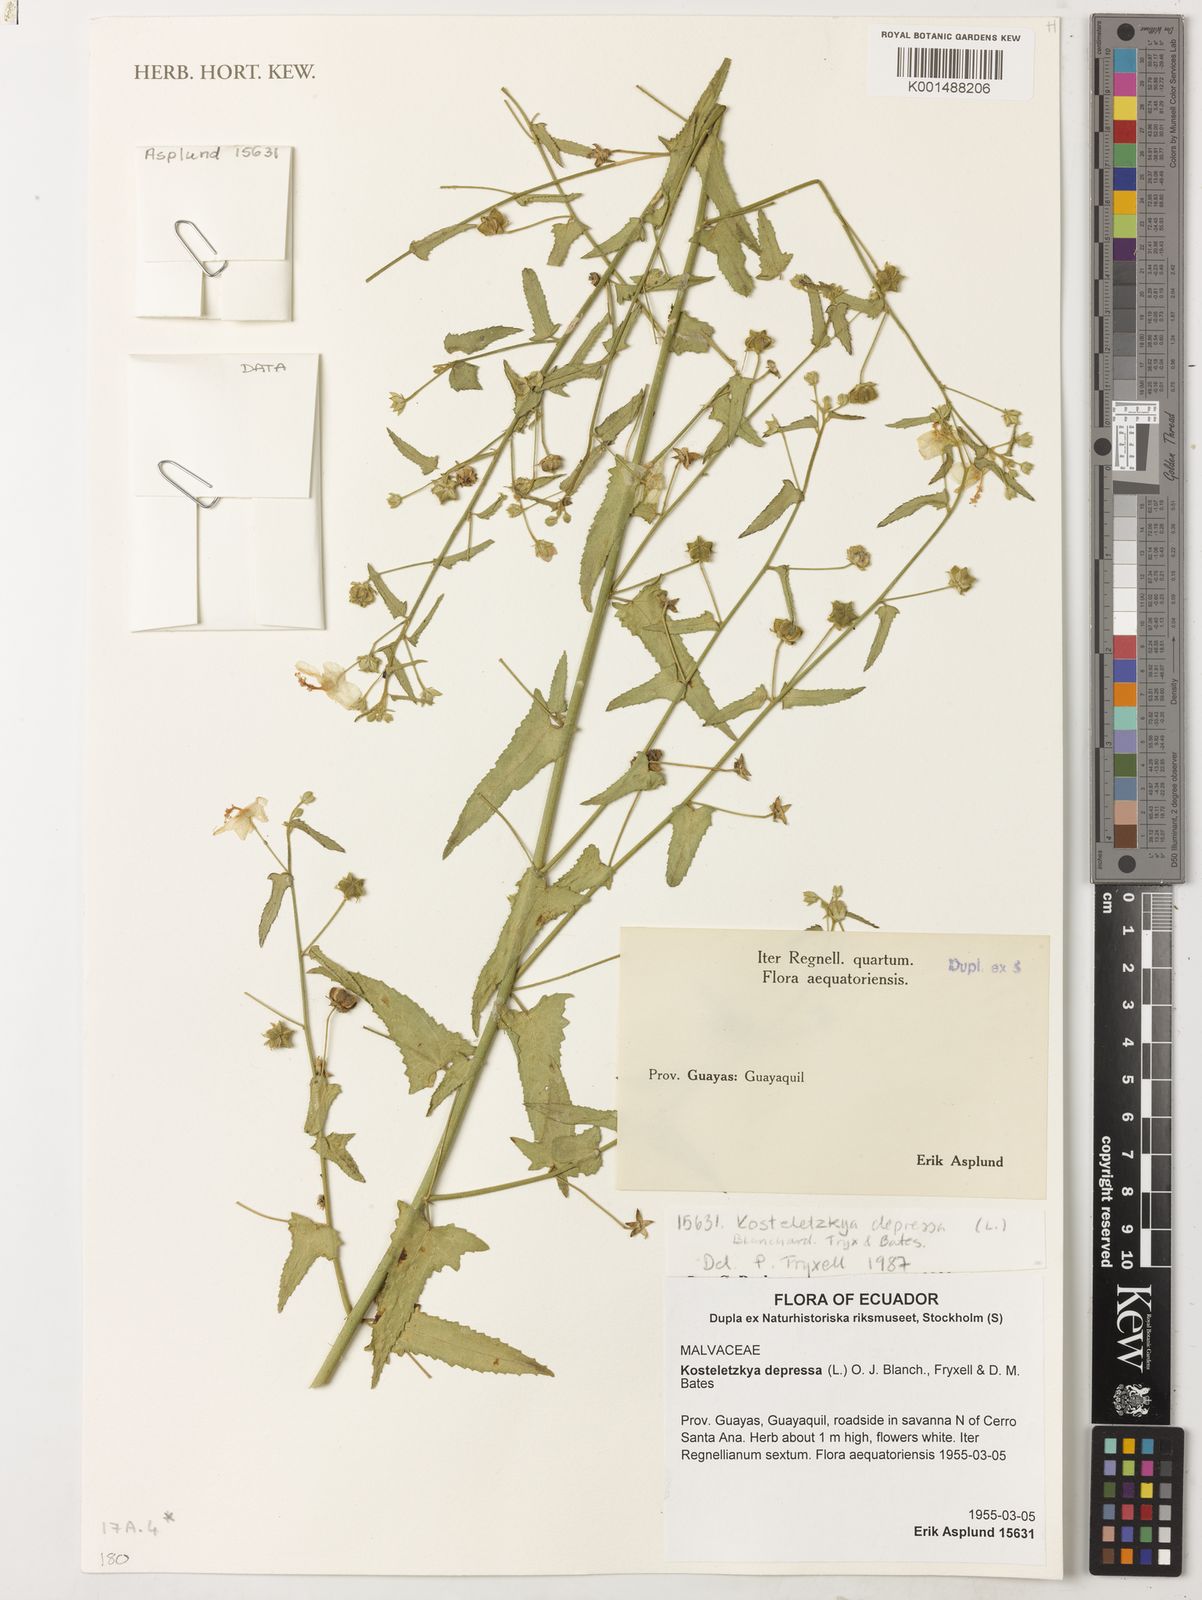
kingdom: Plantae
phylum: Tracheophyta
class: Magnoliopsida
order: Malvales
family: Malvaceae
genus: Kosteletzkya
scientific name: Kosteletzkya depressa
